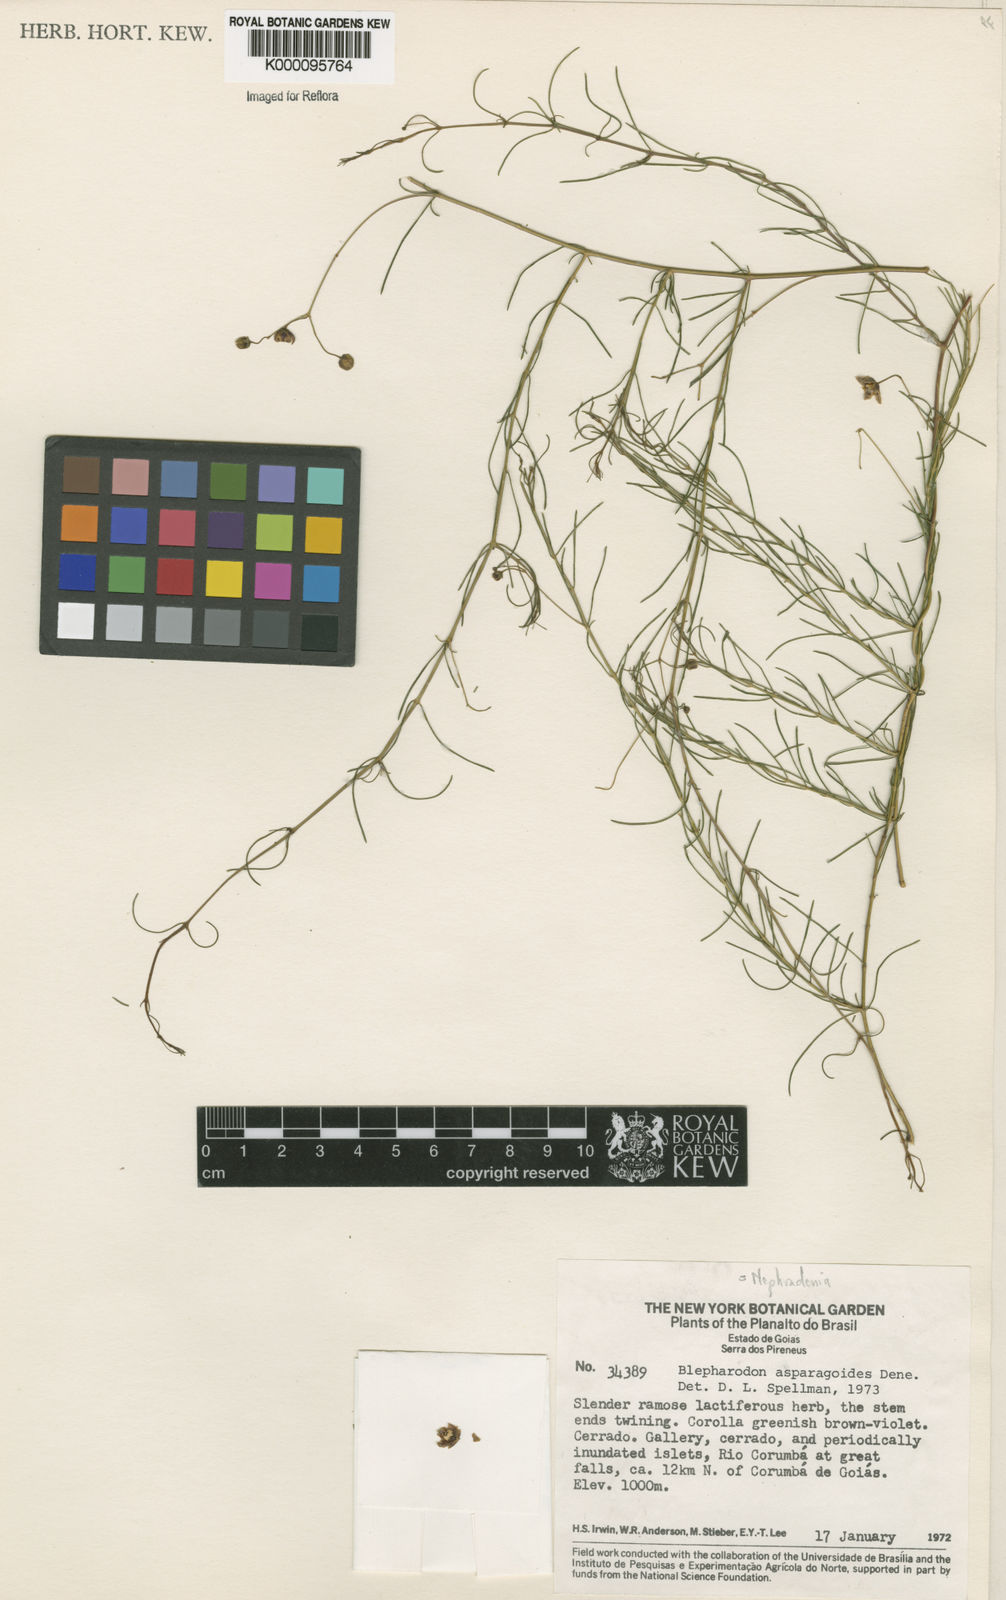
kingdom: Plantae
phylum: Tracheophyta
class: Magnoliopsida
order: Gentianales
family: Apocynaceae
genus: Nephradenia
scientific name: Nephradenia asparagoides
